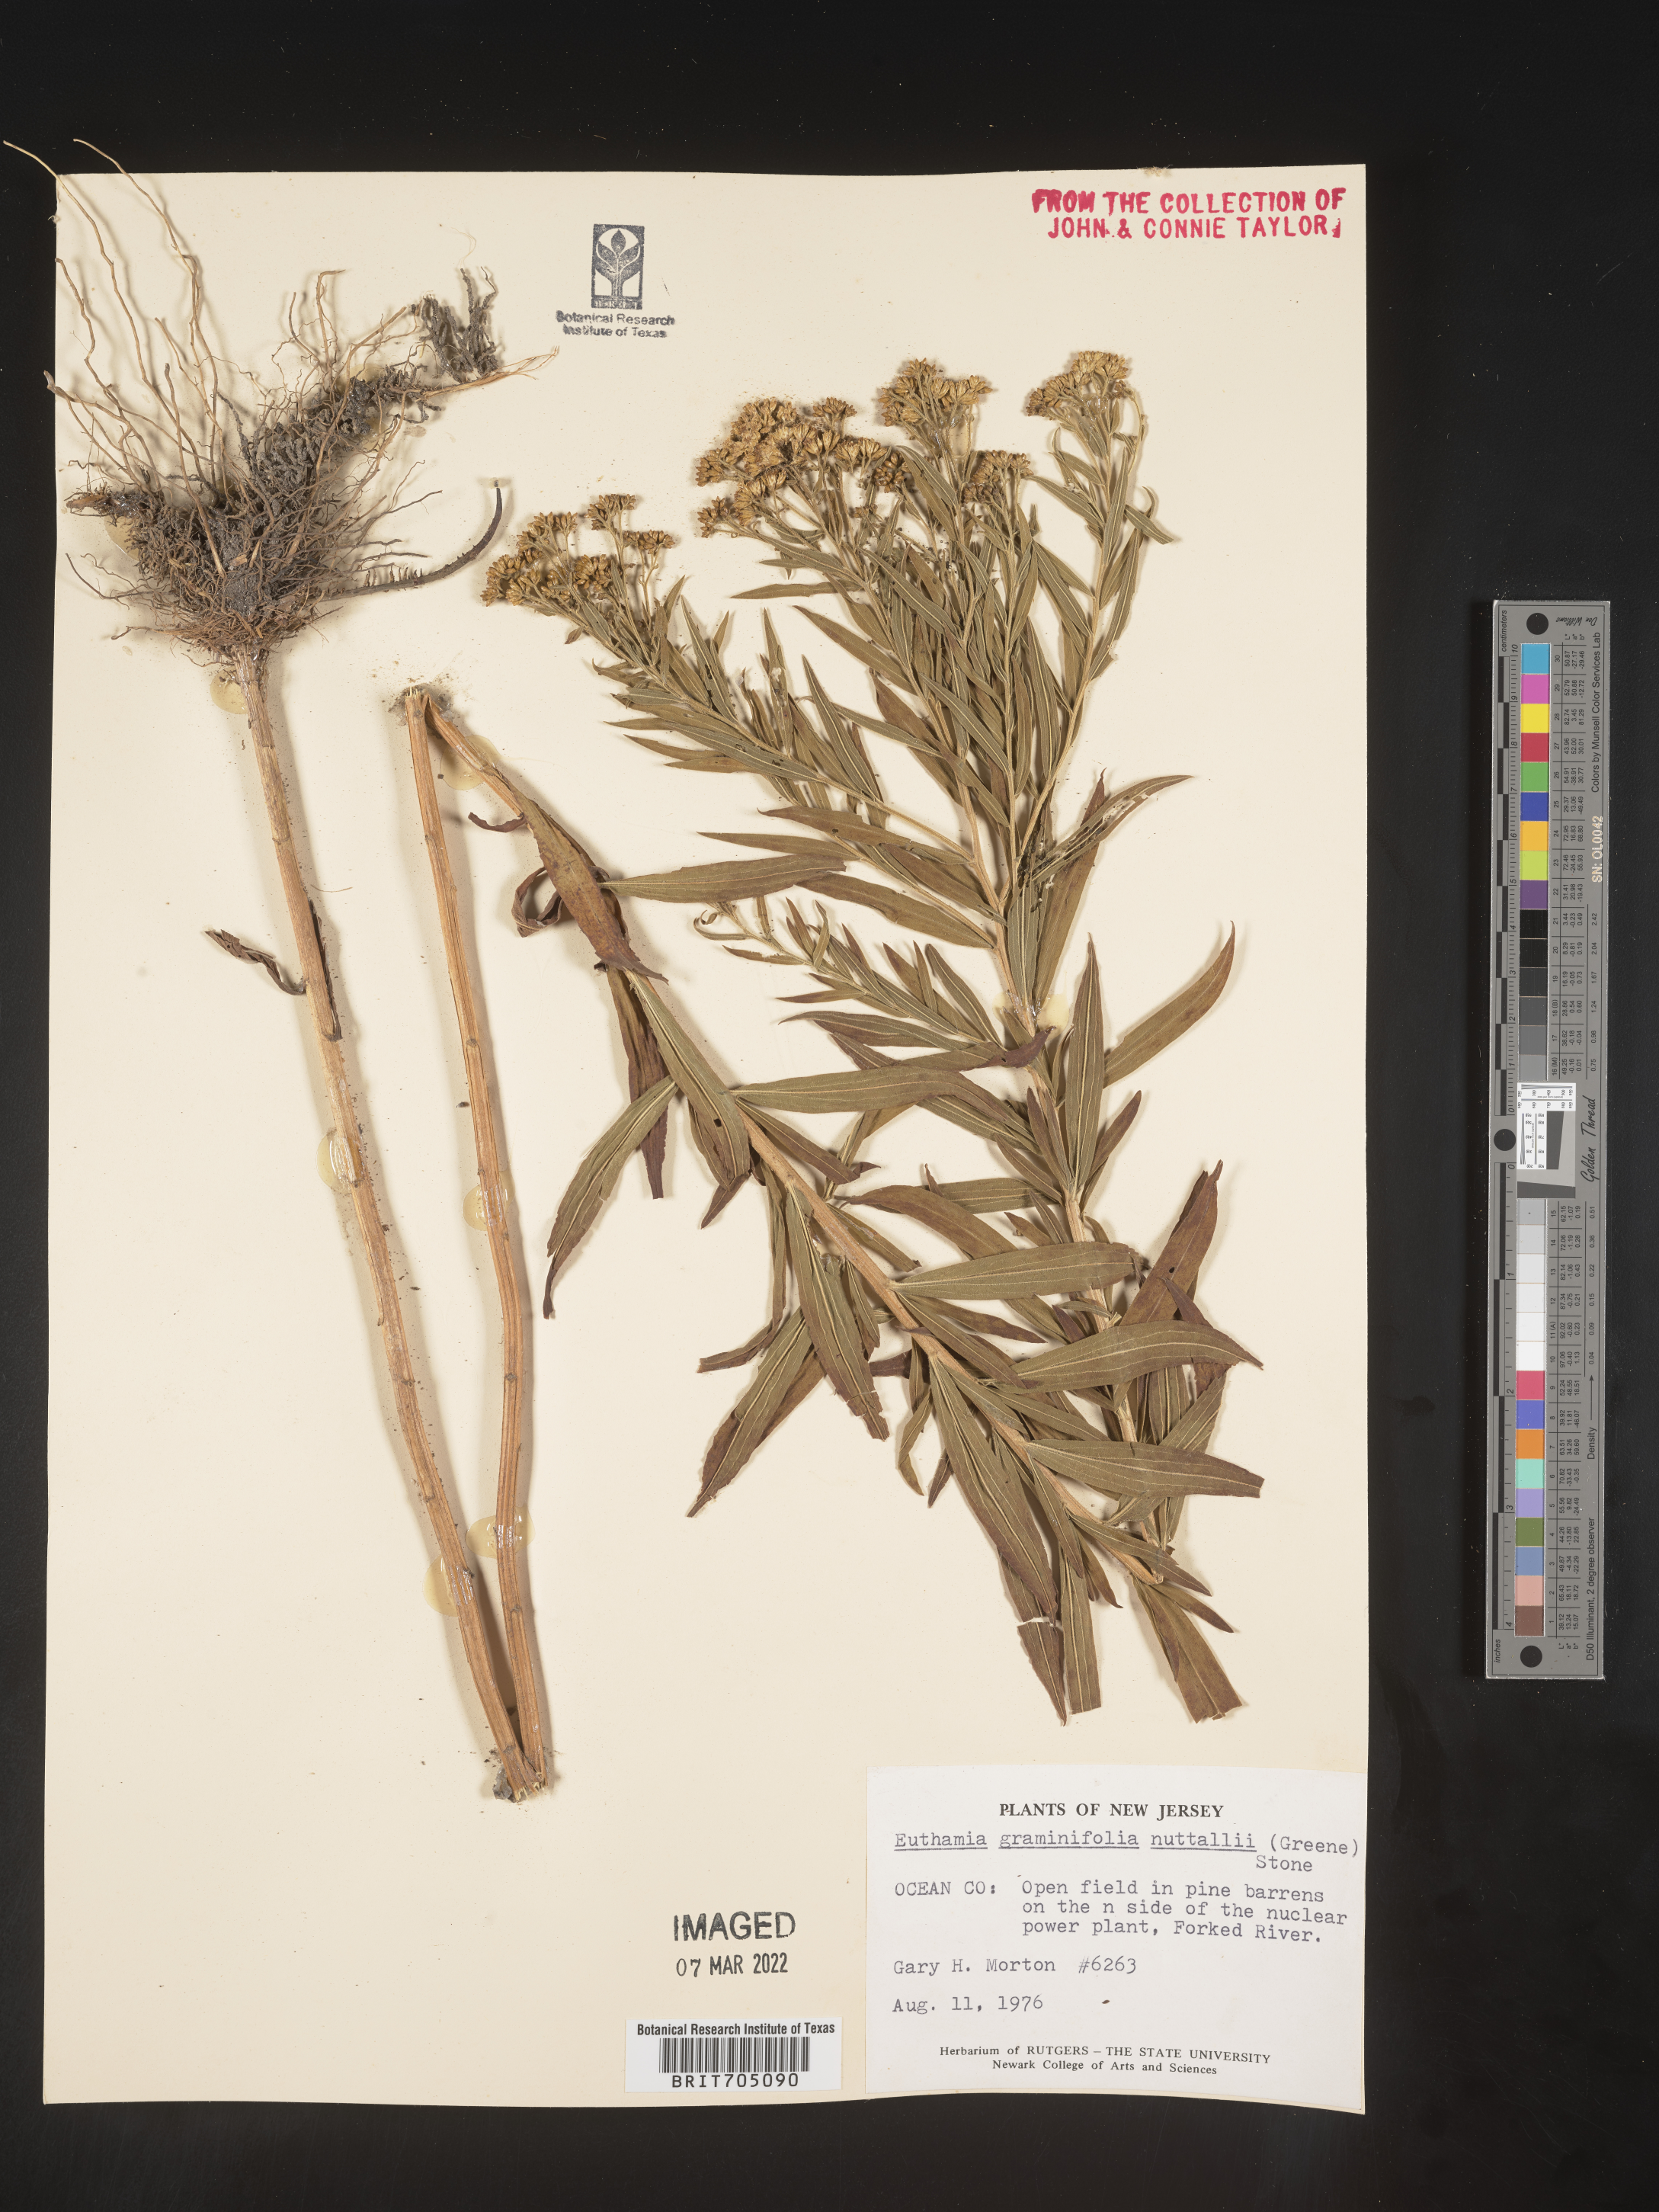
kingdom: Plantae
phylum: Tracheophyta
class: Magnoliopsida
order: Asterales
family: Asteraceae
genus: Euthamia
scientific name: Euthamia graminifolia
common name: Common goldentop
